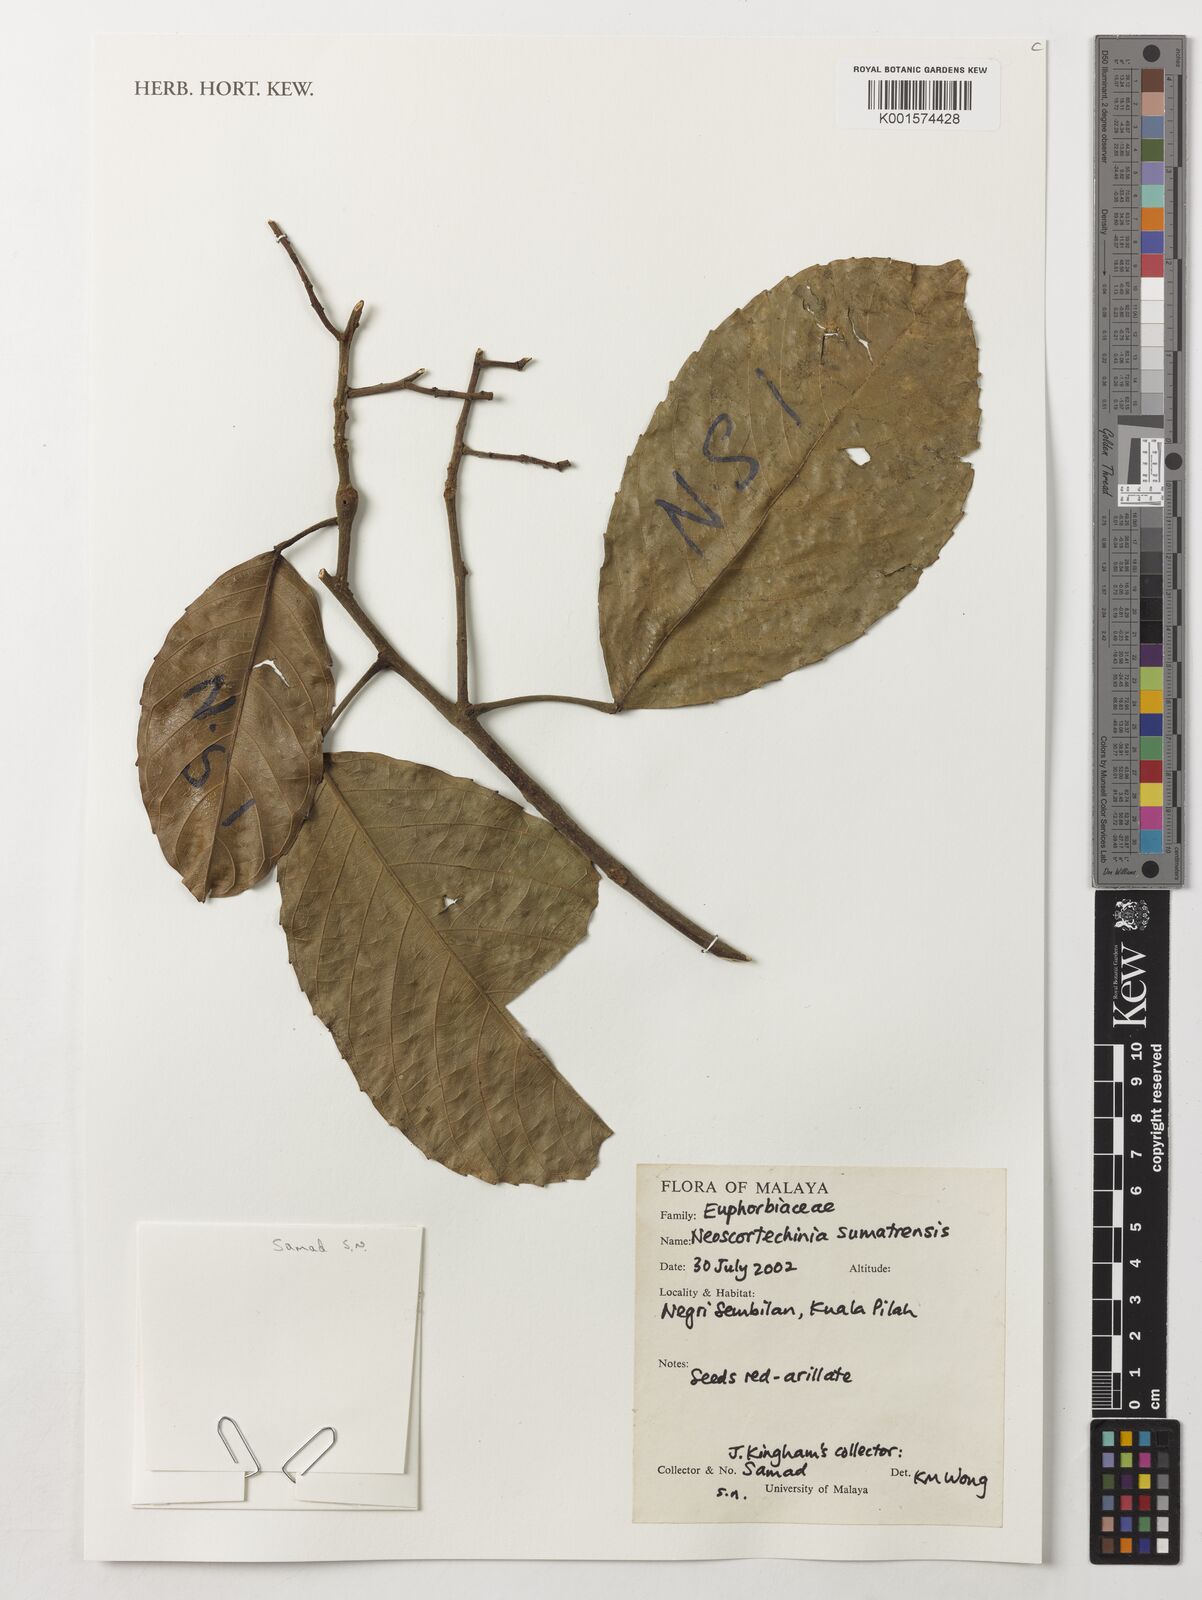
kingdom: Plantae
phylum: Tracheophyta
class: Magnoliopsida
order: Malpighiales
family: Euphorbiaceae
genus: Neoscortechinia
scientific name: Neoscortechinia sumatrensis
